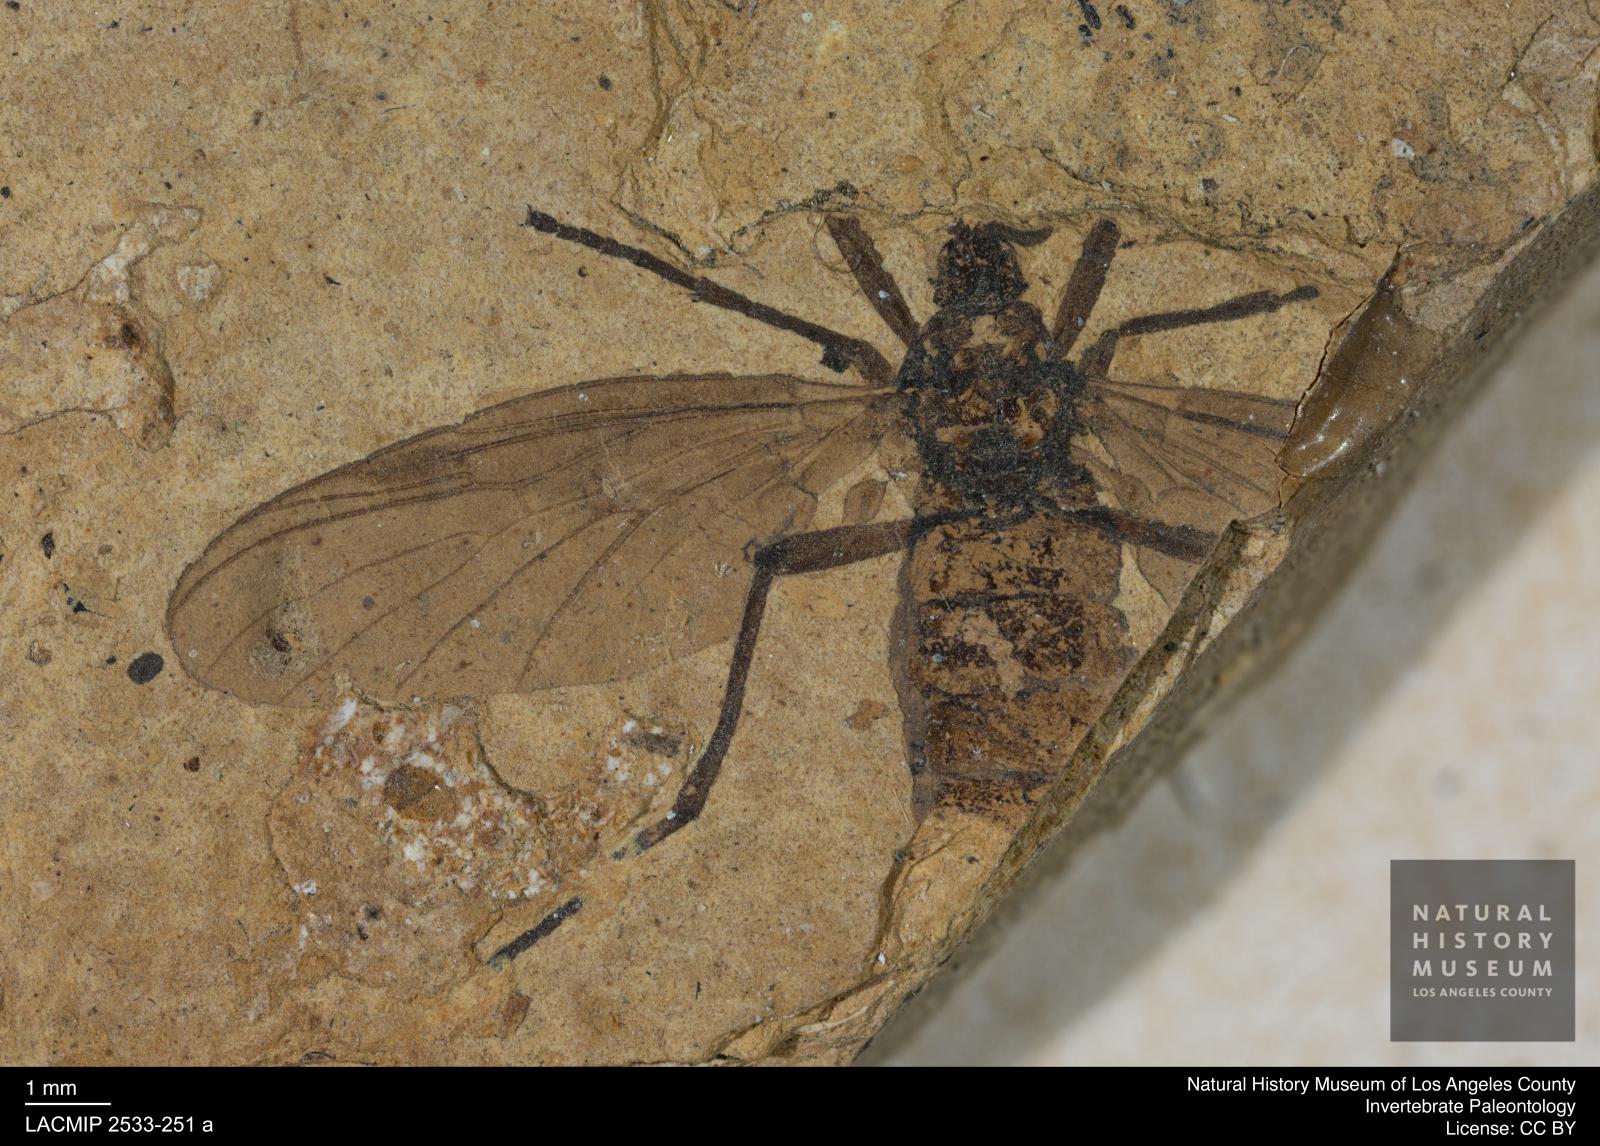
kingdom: Animalia
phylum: Arthropoda
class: Insecta
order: Diptera
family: Bibionidae
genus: Penthetria
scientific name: Penthetria aestimata
